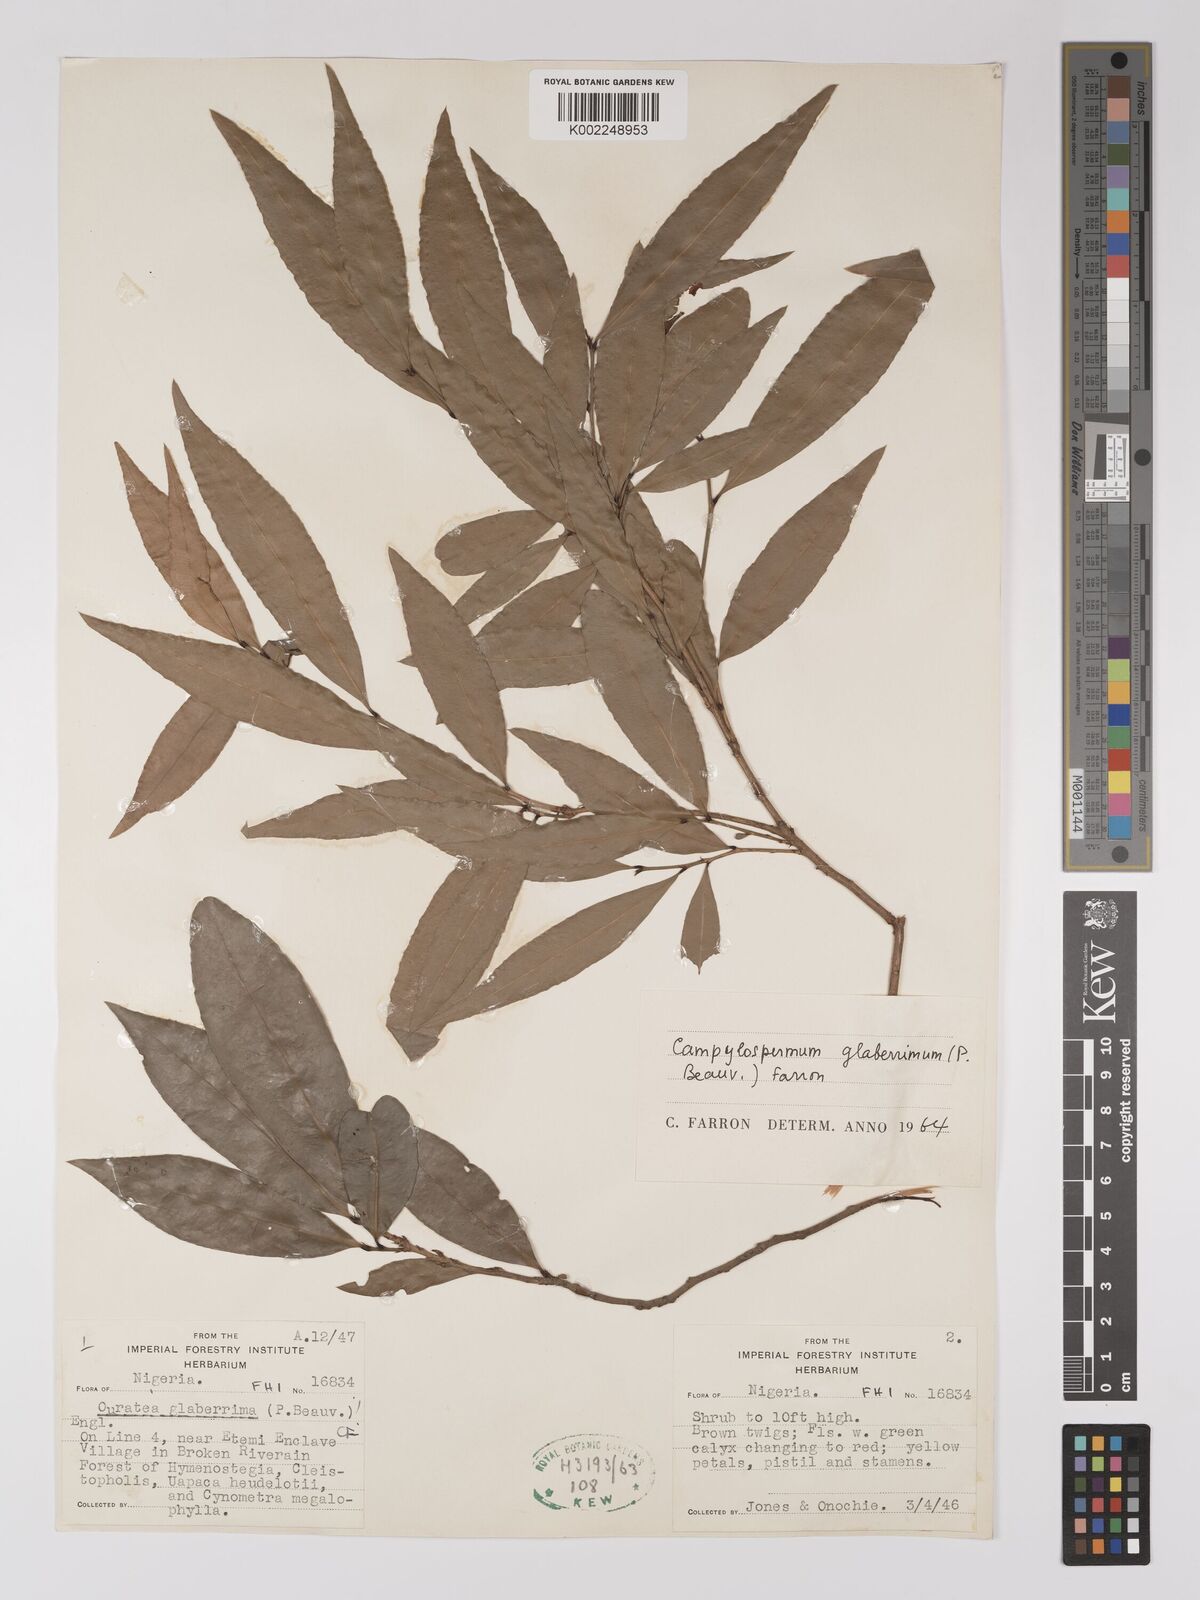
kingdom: Plantae
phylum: Tracheophyta
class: Magnoliopsida
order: Malpighiales
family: Ochnaceae
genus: Campylospermum
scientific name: Campylospermum glaberrimum
